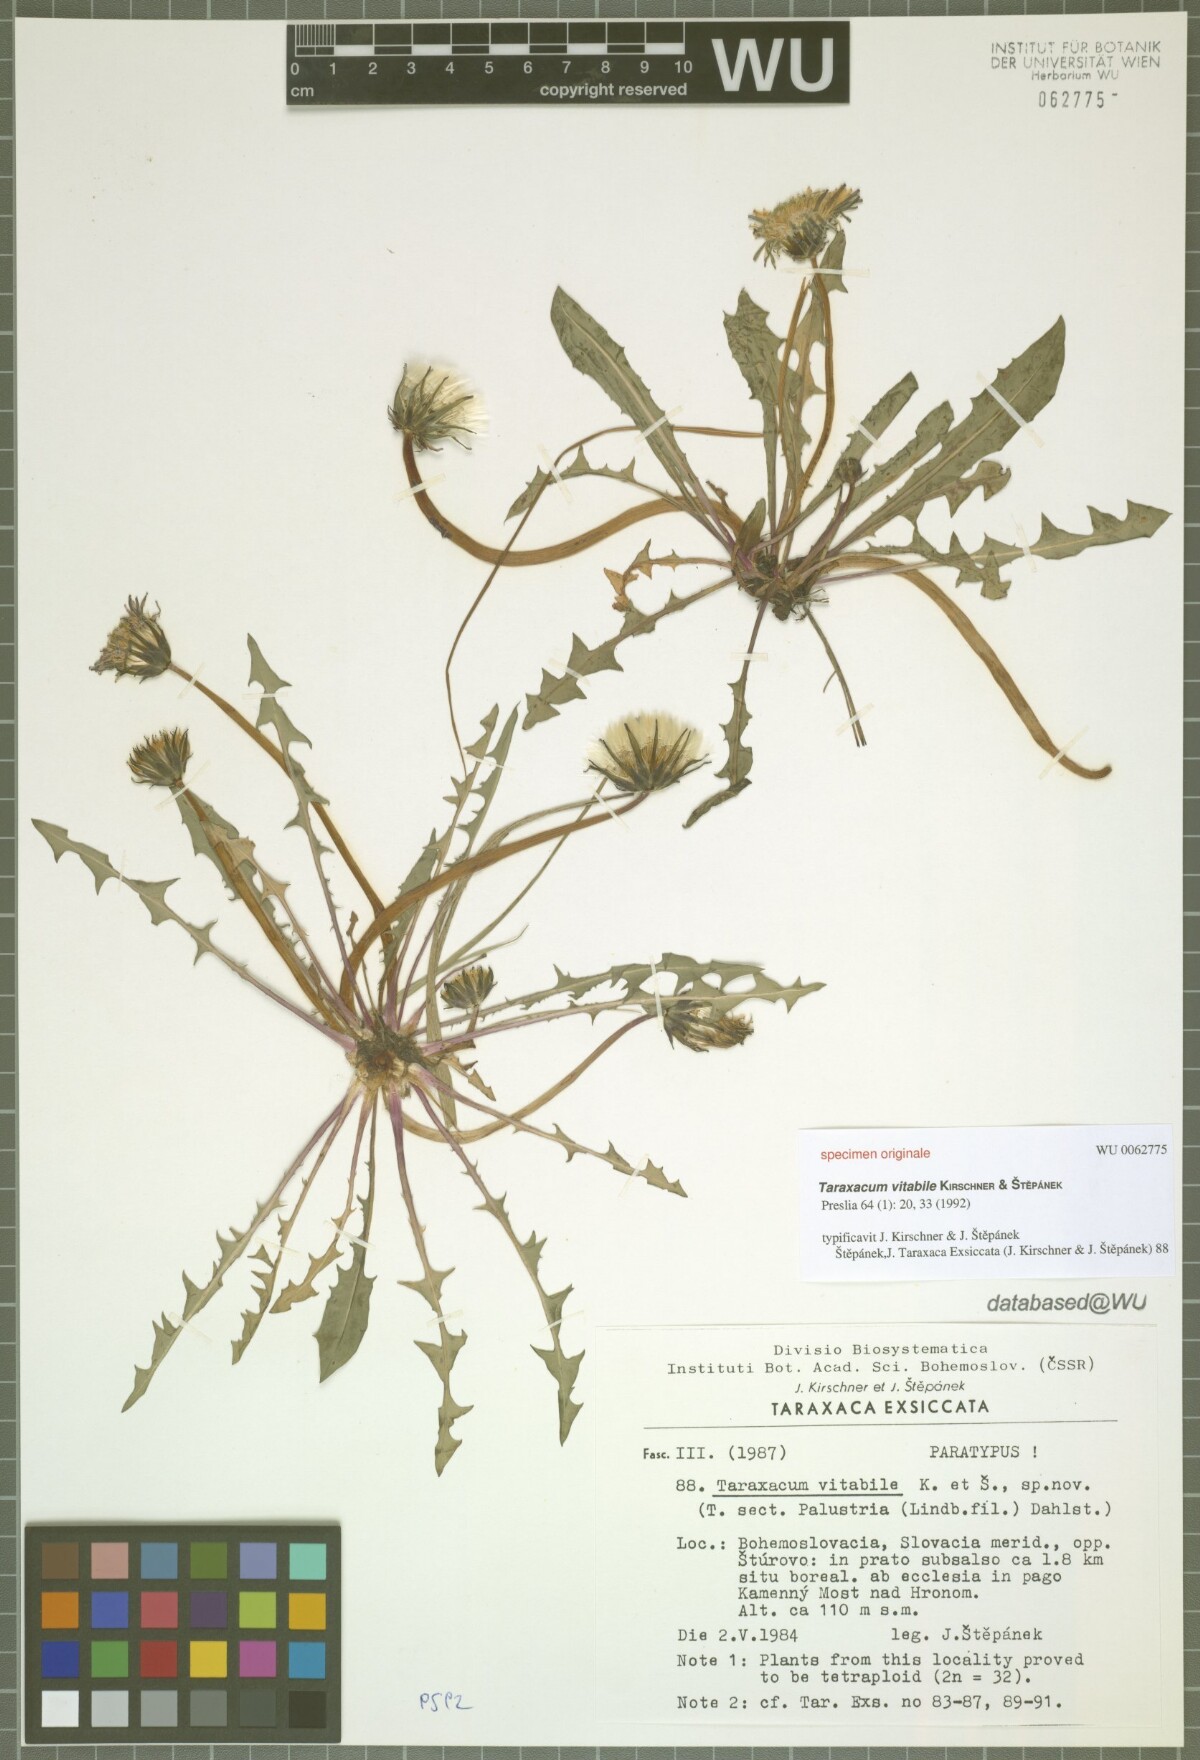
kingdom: Plantae
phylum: Tracheophyta
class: Magnoliopsida
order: Asterales
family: Asteraceae
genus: Taraxacum
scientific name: Taraxacum vindobonense
